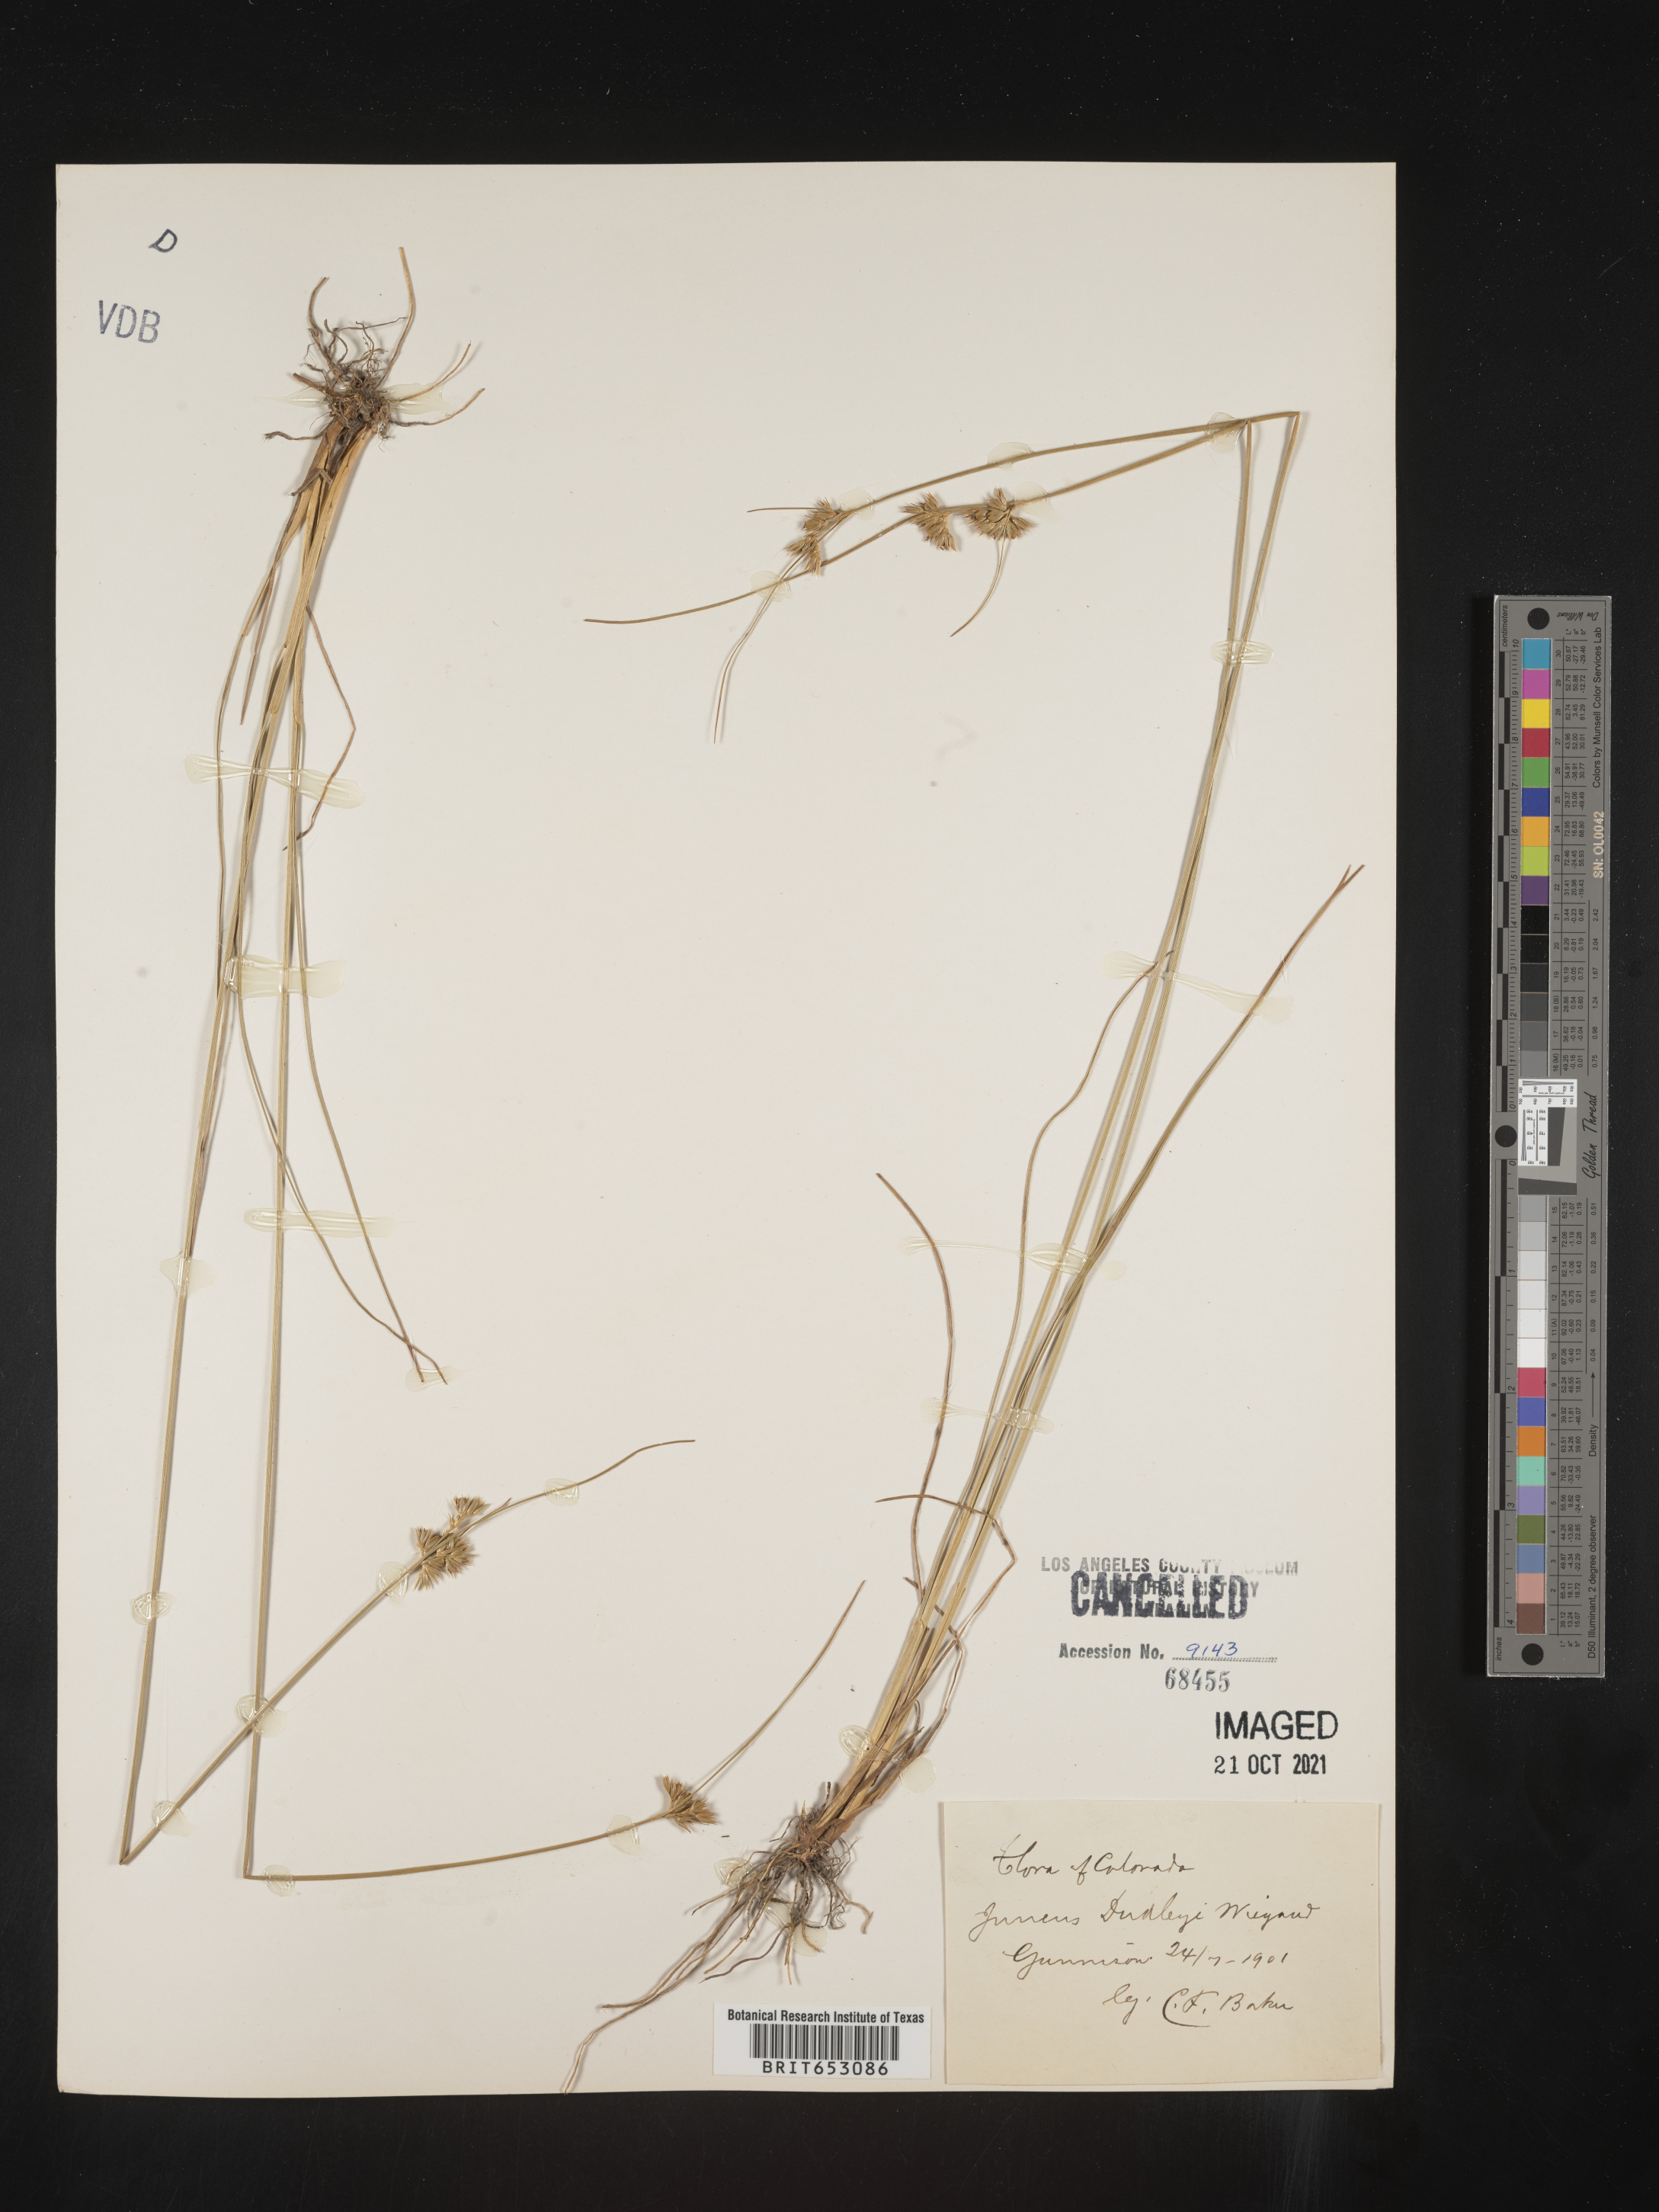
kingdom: Plantae
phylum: Tracheophyta
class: Liliopsida
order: Poales
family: Juncaceae
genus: Juncus
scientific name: Juncus dudleyi
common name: Dudley's rush
